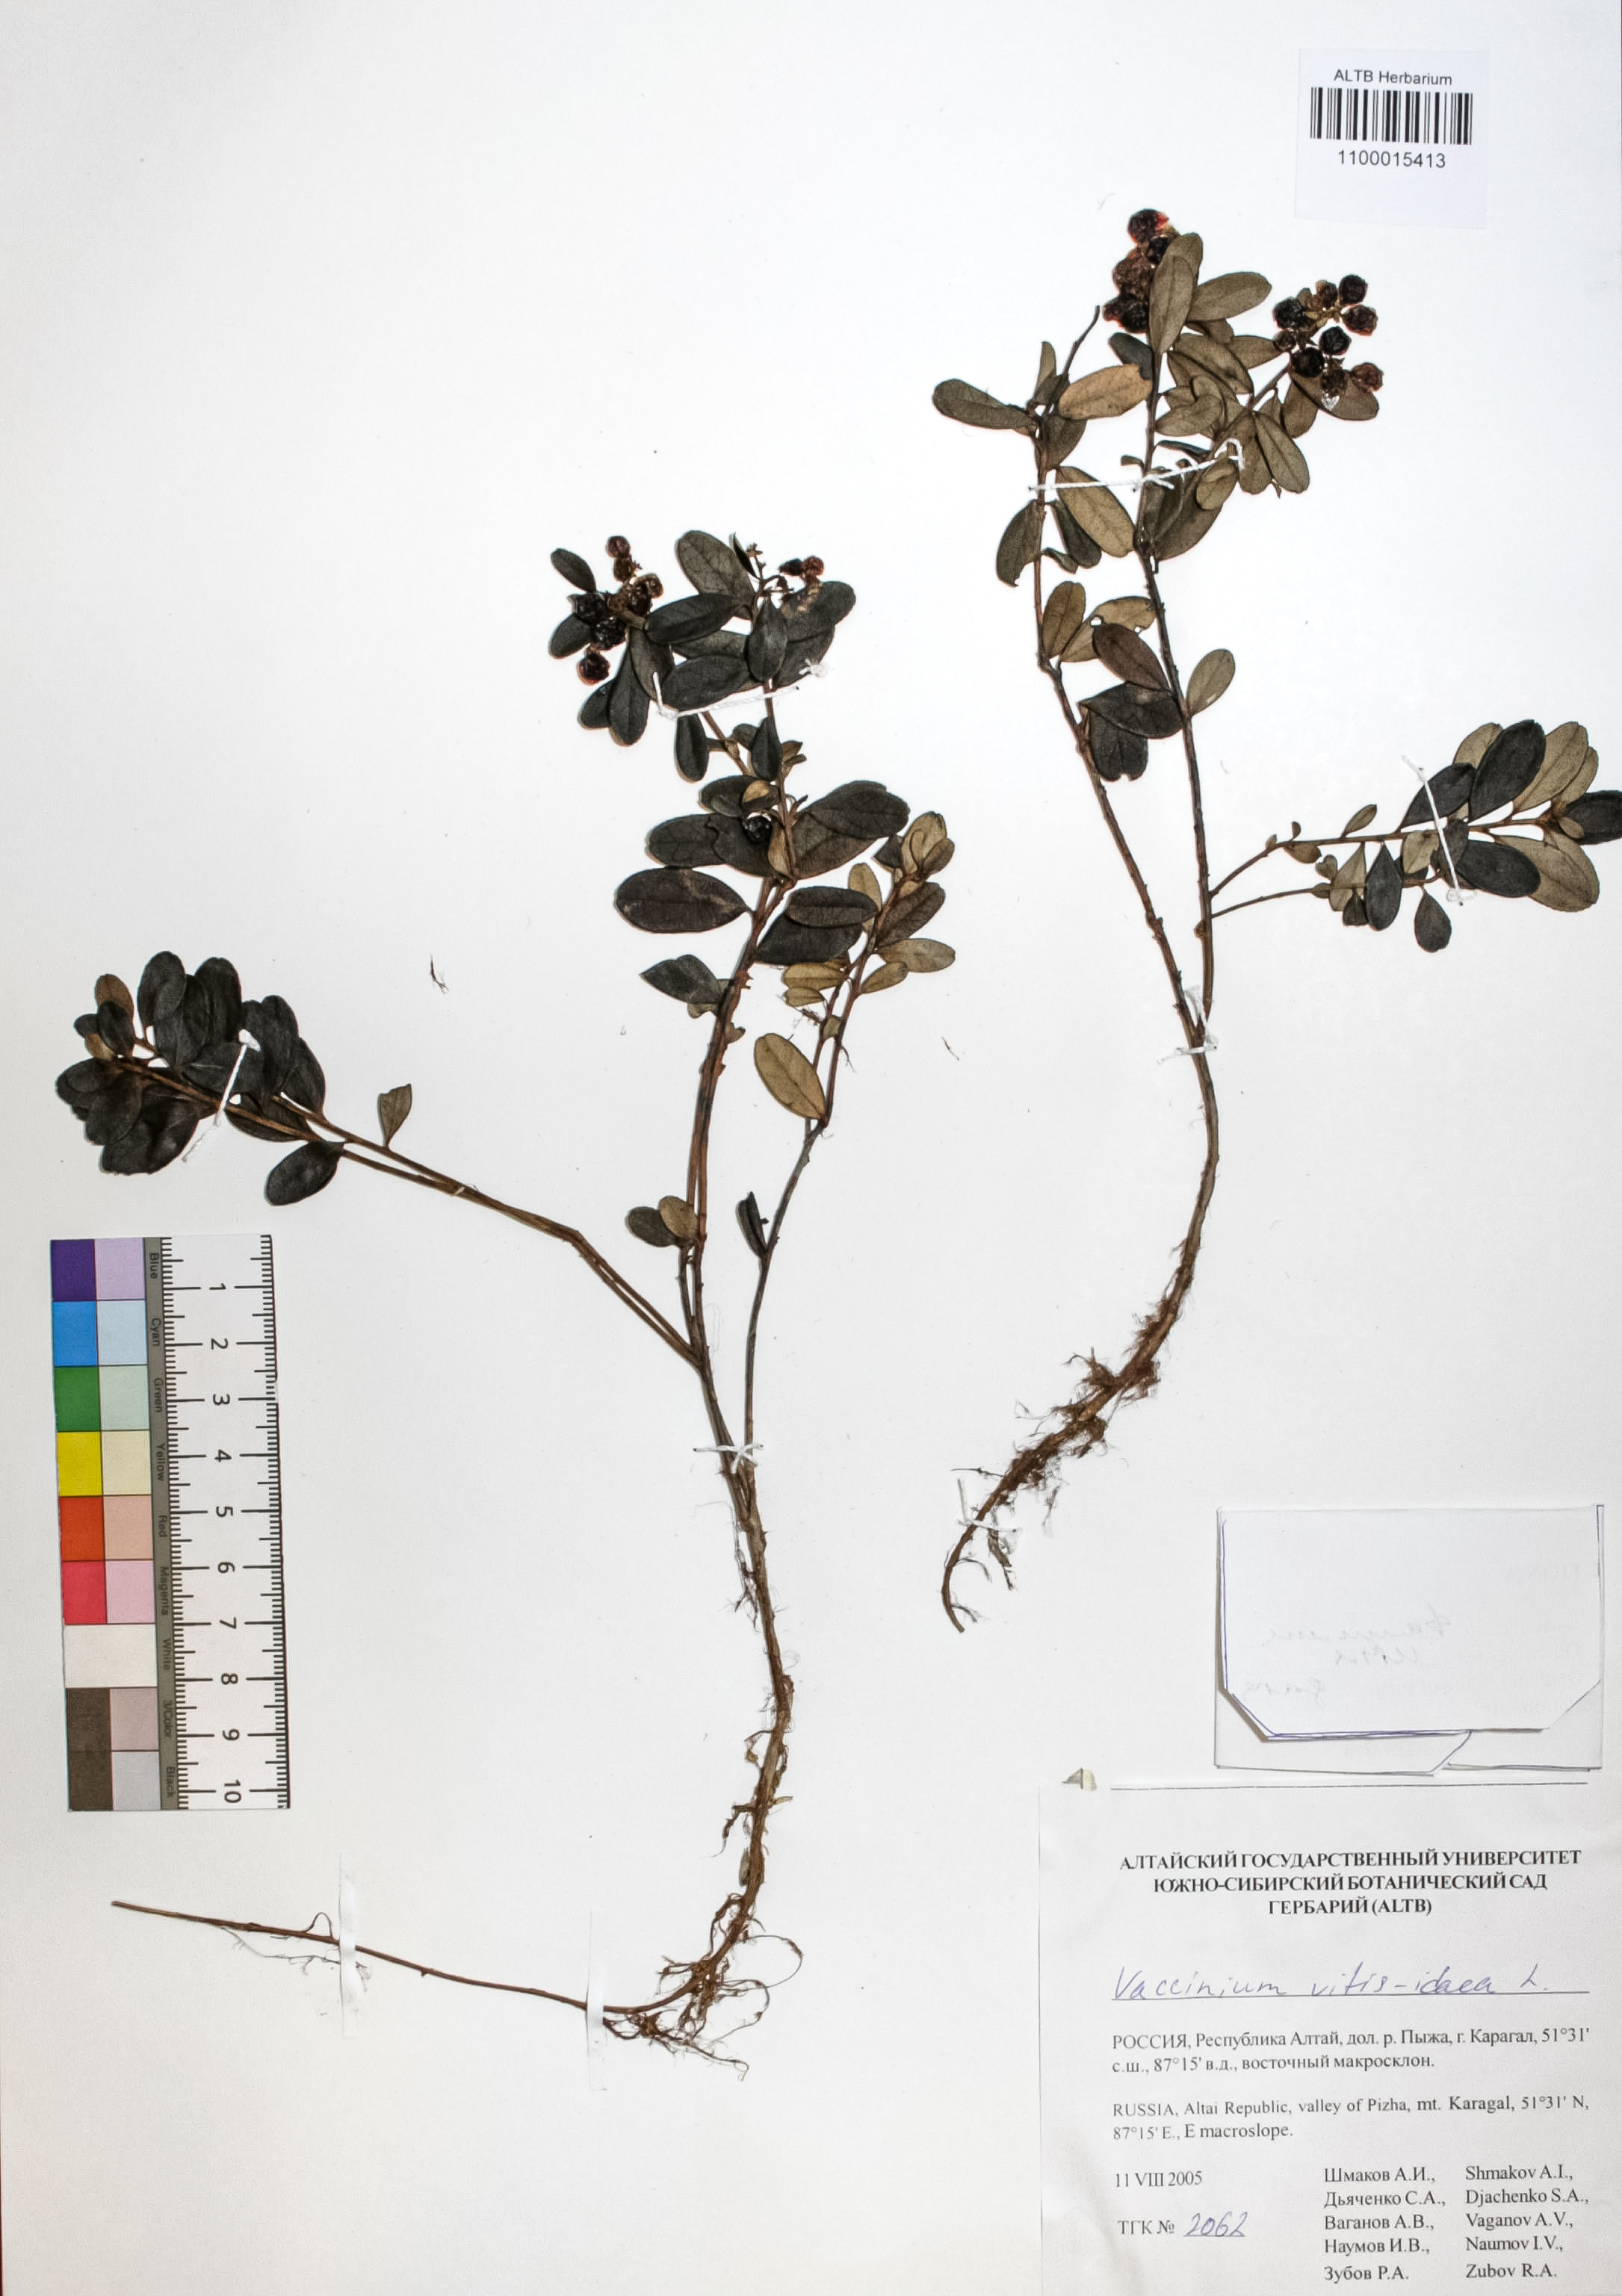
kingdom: Plantae
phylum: Tracheophyta
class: Magnoliopsida
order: Ericales
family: Ericaceae
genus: Vaccinium
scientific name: Vaccinium vitis-idaea
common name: Cowberry
